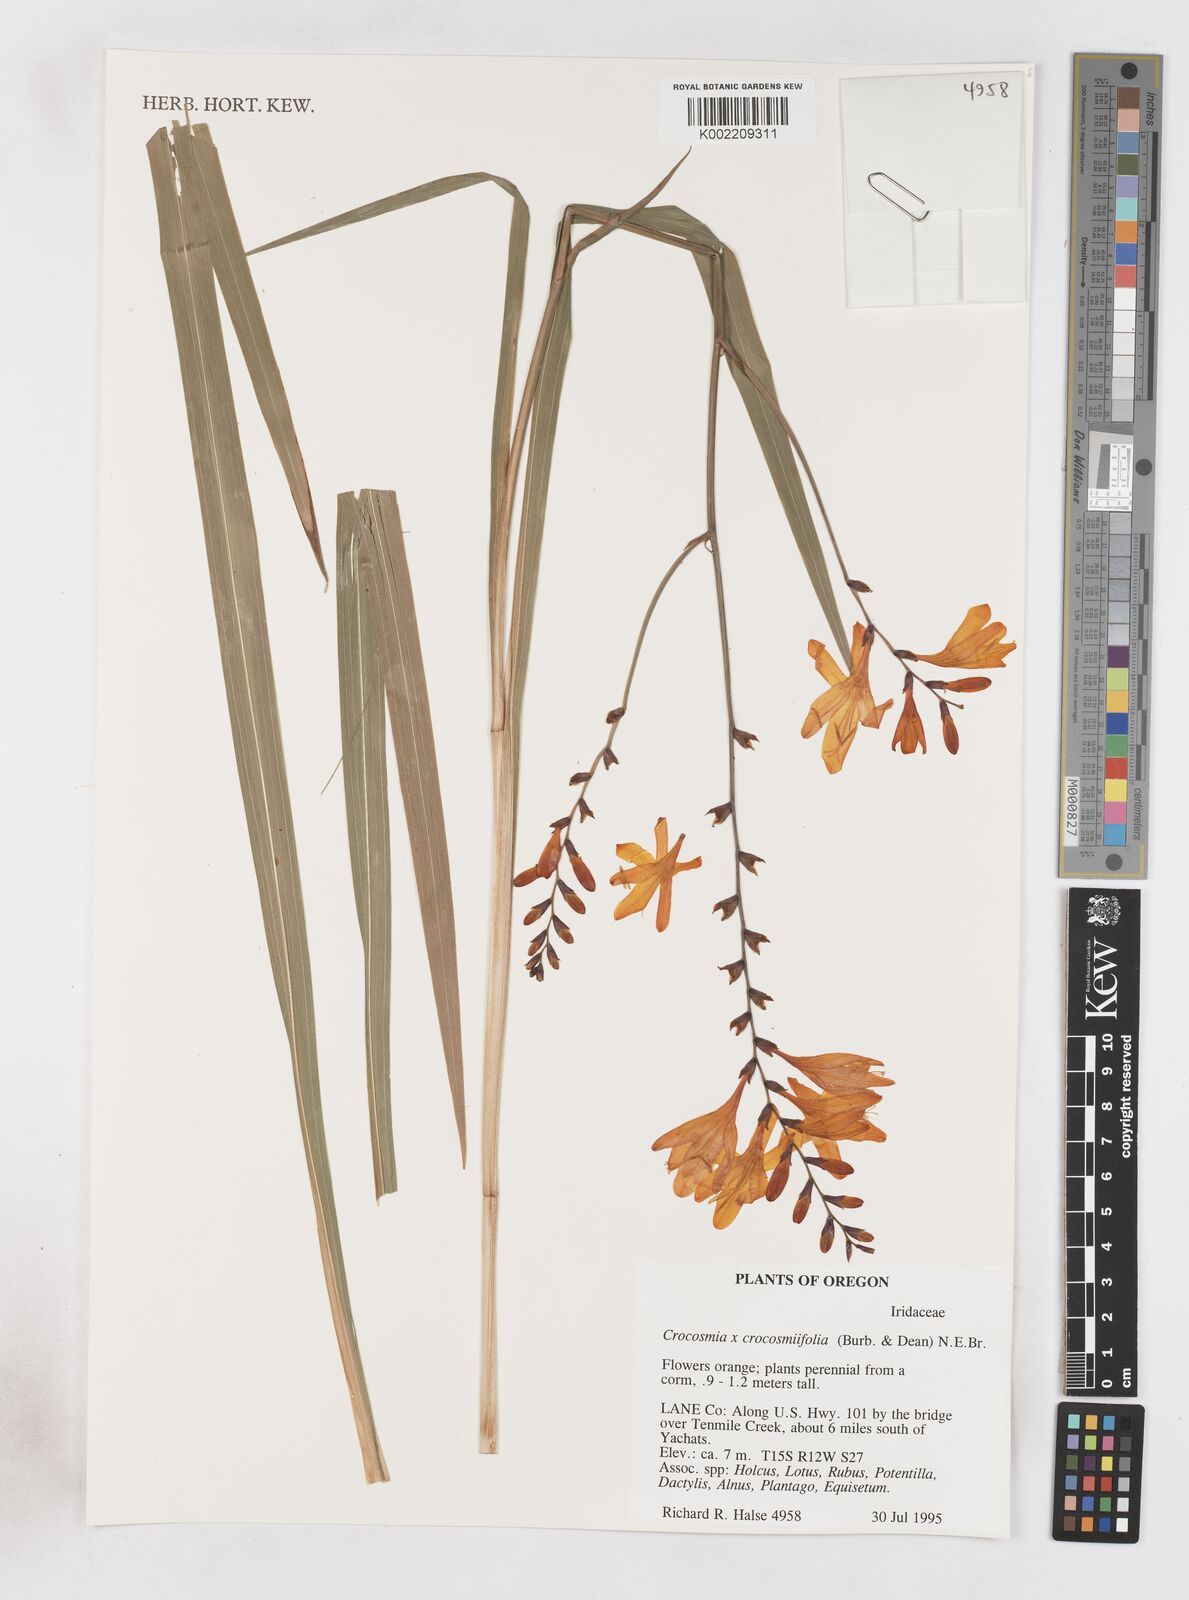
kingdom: Plantae
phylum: Tracheophyta
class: Liliopsida
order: Asparagales
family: Iridaceae
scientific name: Iridaceae
